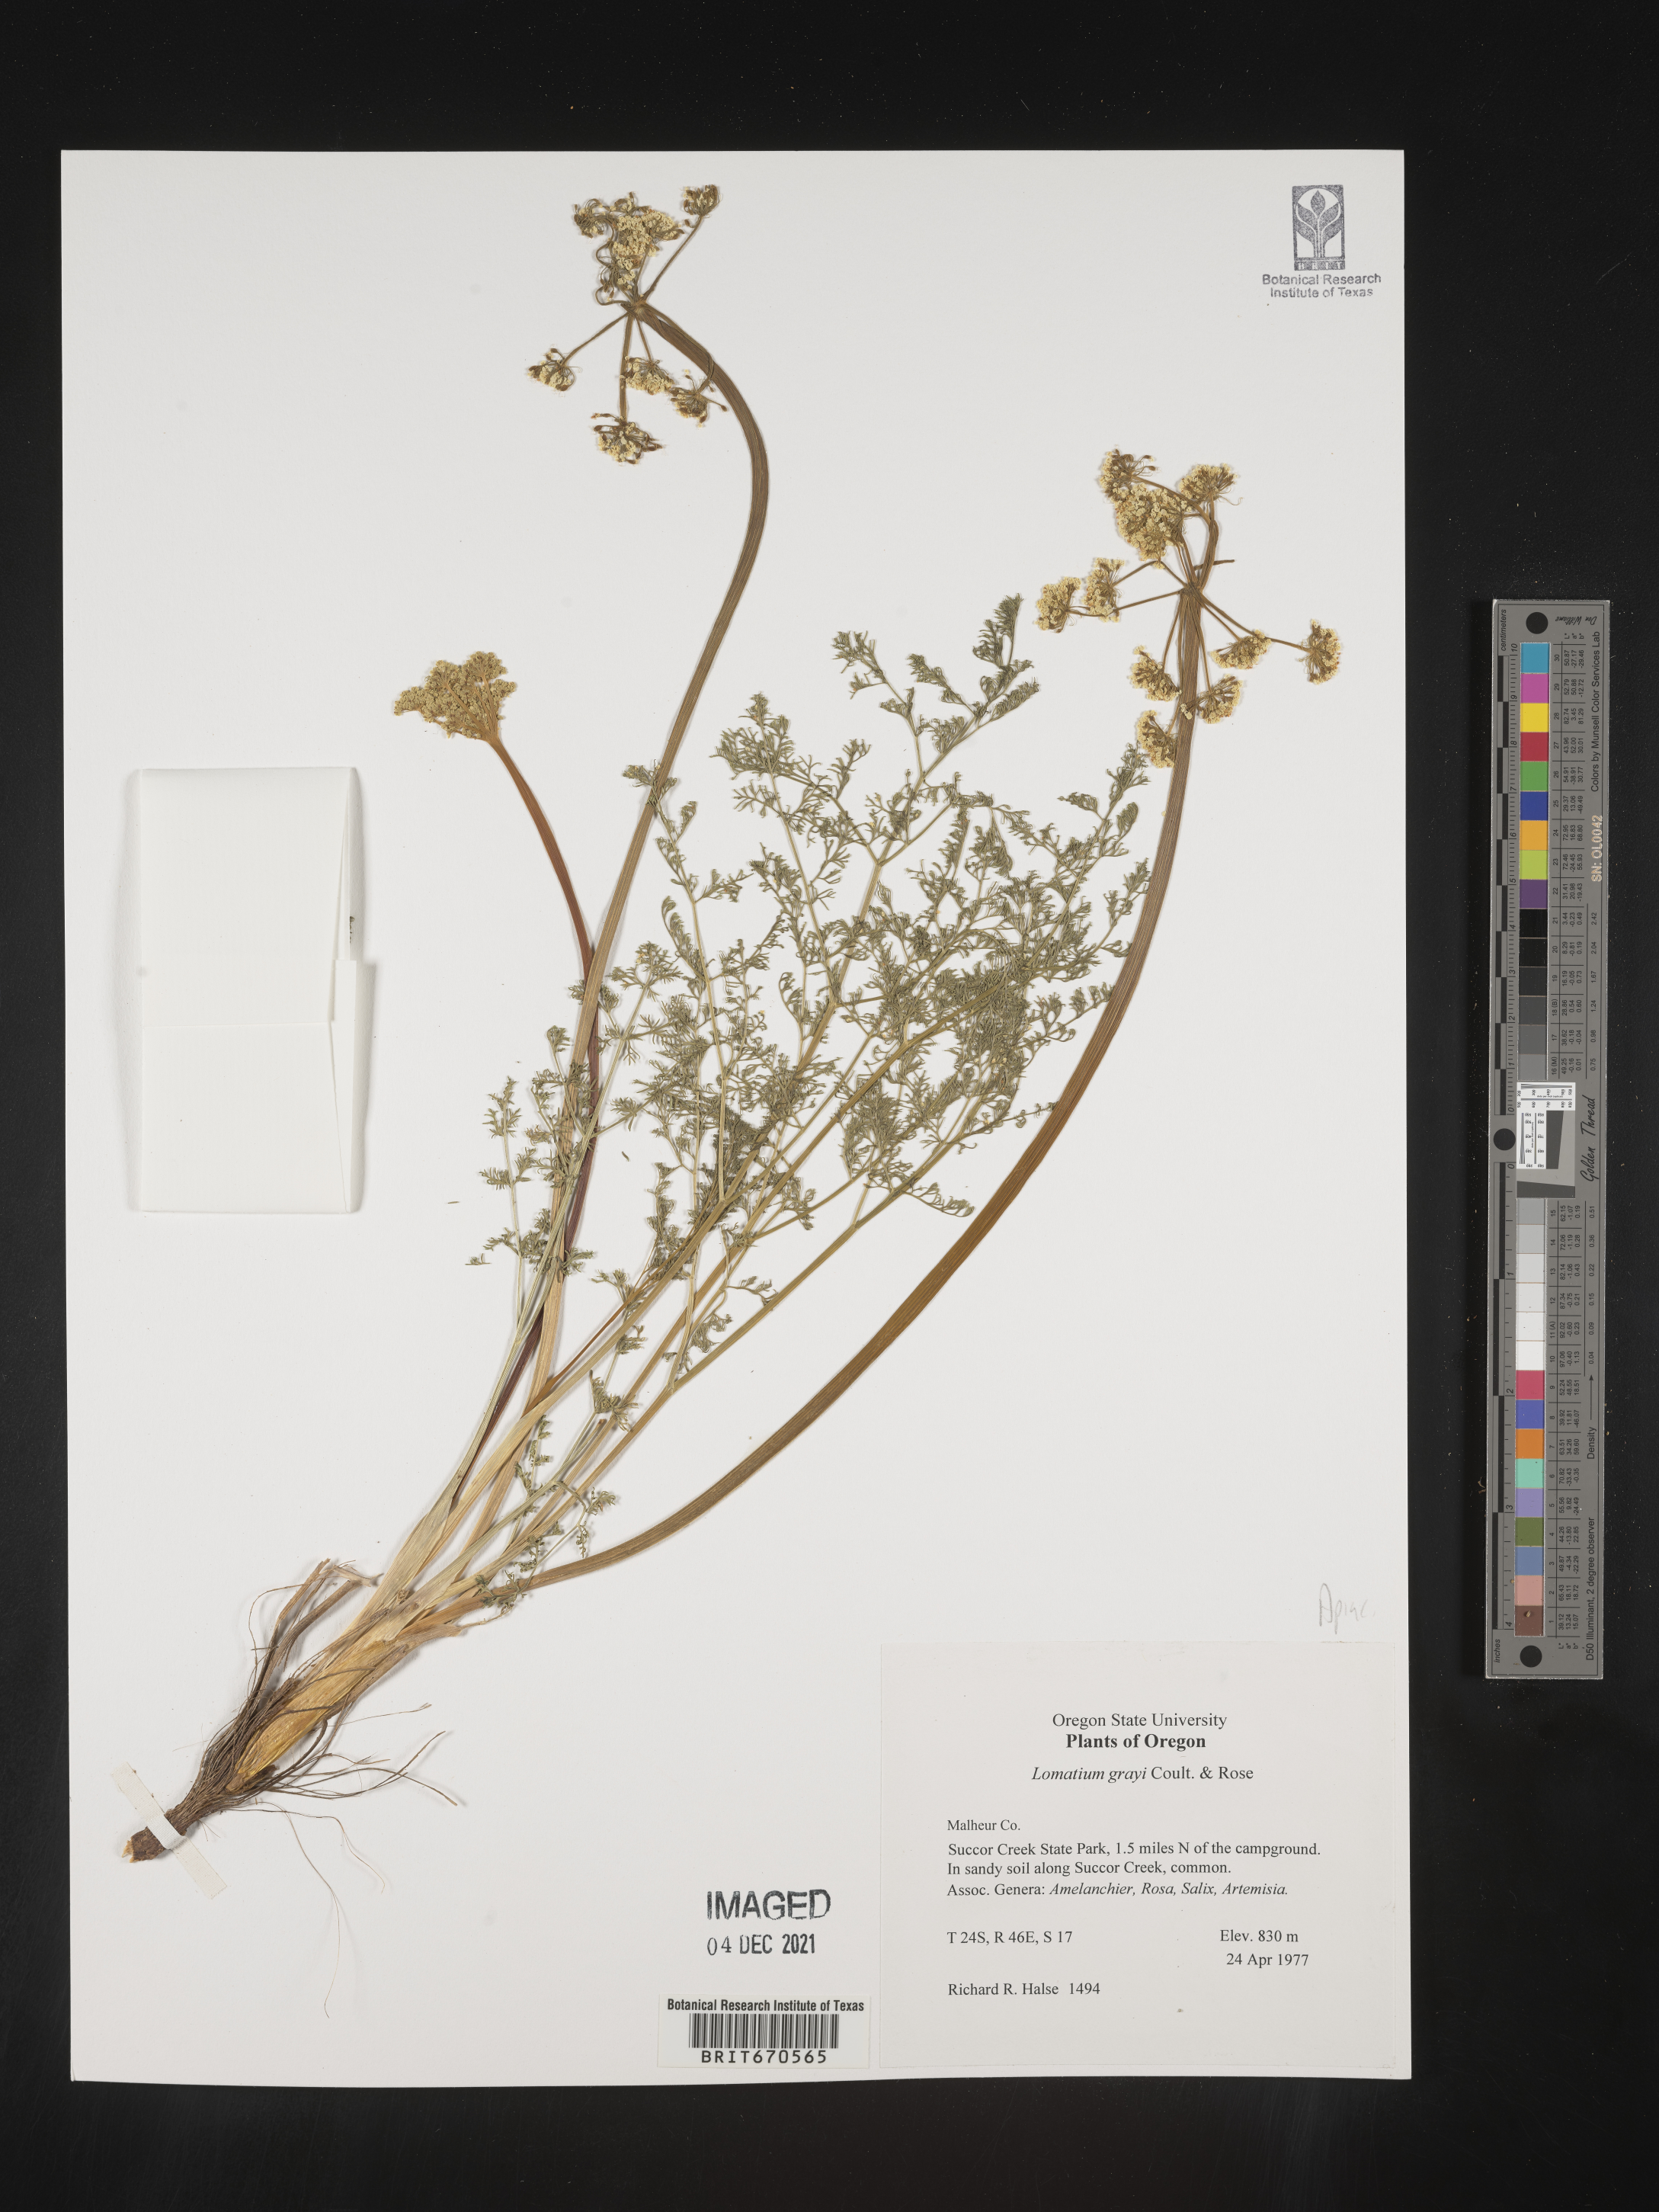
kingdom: Plantae
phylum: Tracheophyta
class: Magnoliopsida
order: Apiales
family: Apiaceae
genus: Lomatium
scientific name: Lomatium grayi
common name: Milfoil lomatium
